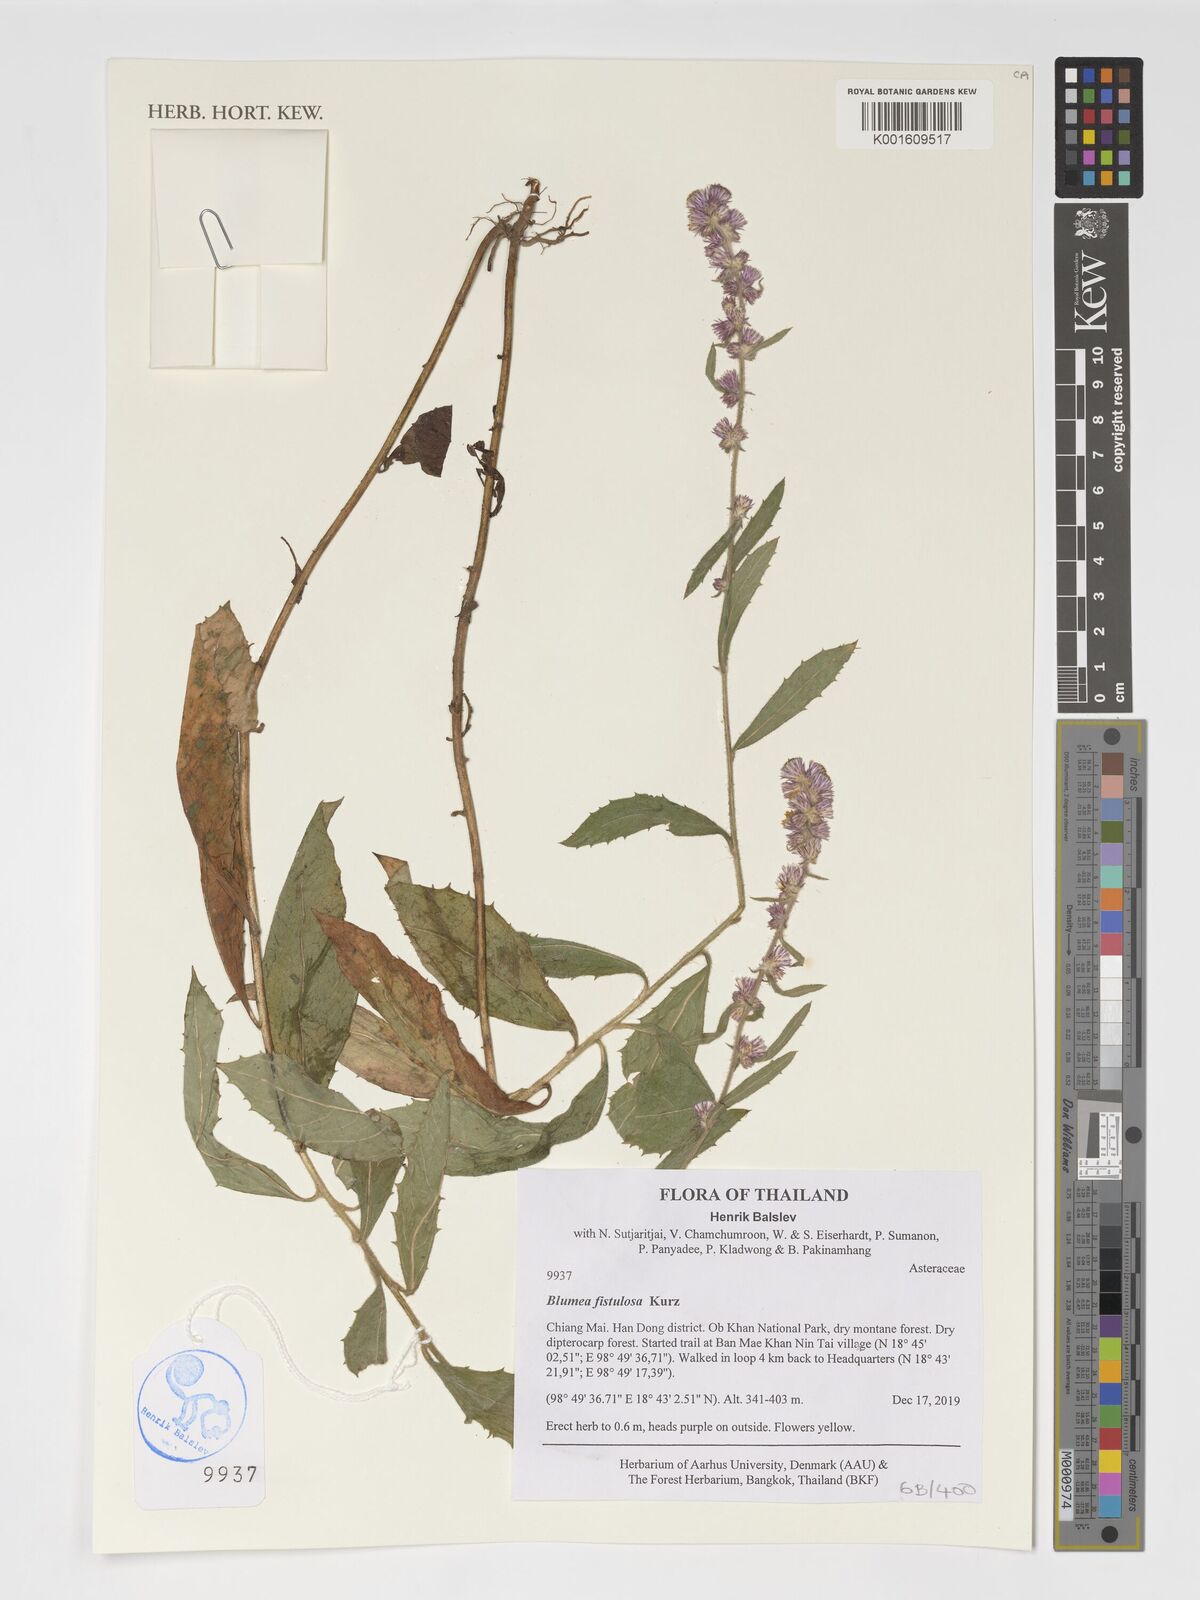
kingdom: Plantae
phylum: Tracheophyta
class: Magnoliopsida
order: Asterales
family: Asteraceae
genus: Blumea
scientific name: Blumea fistulosa
